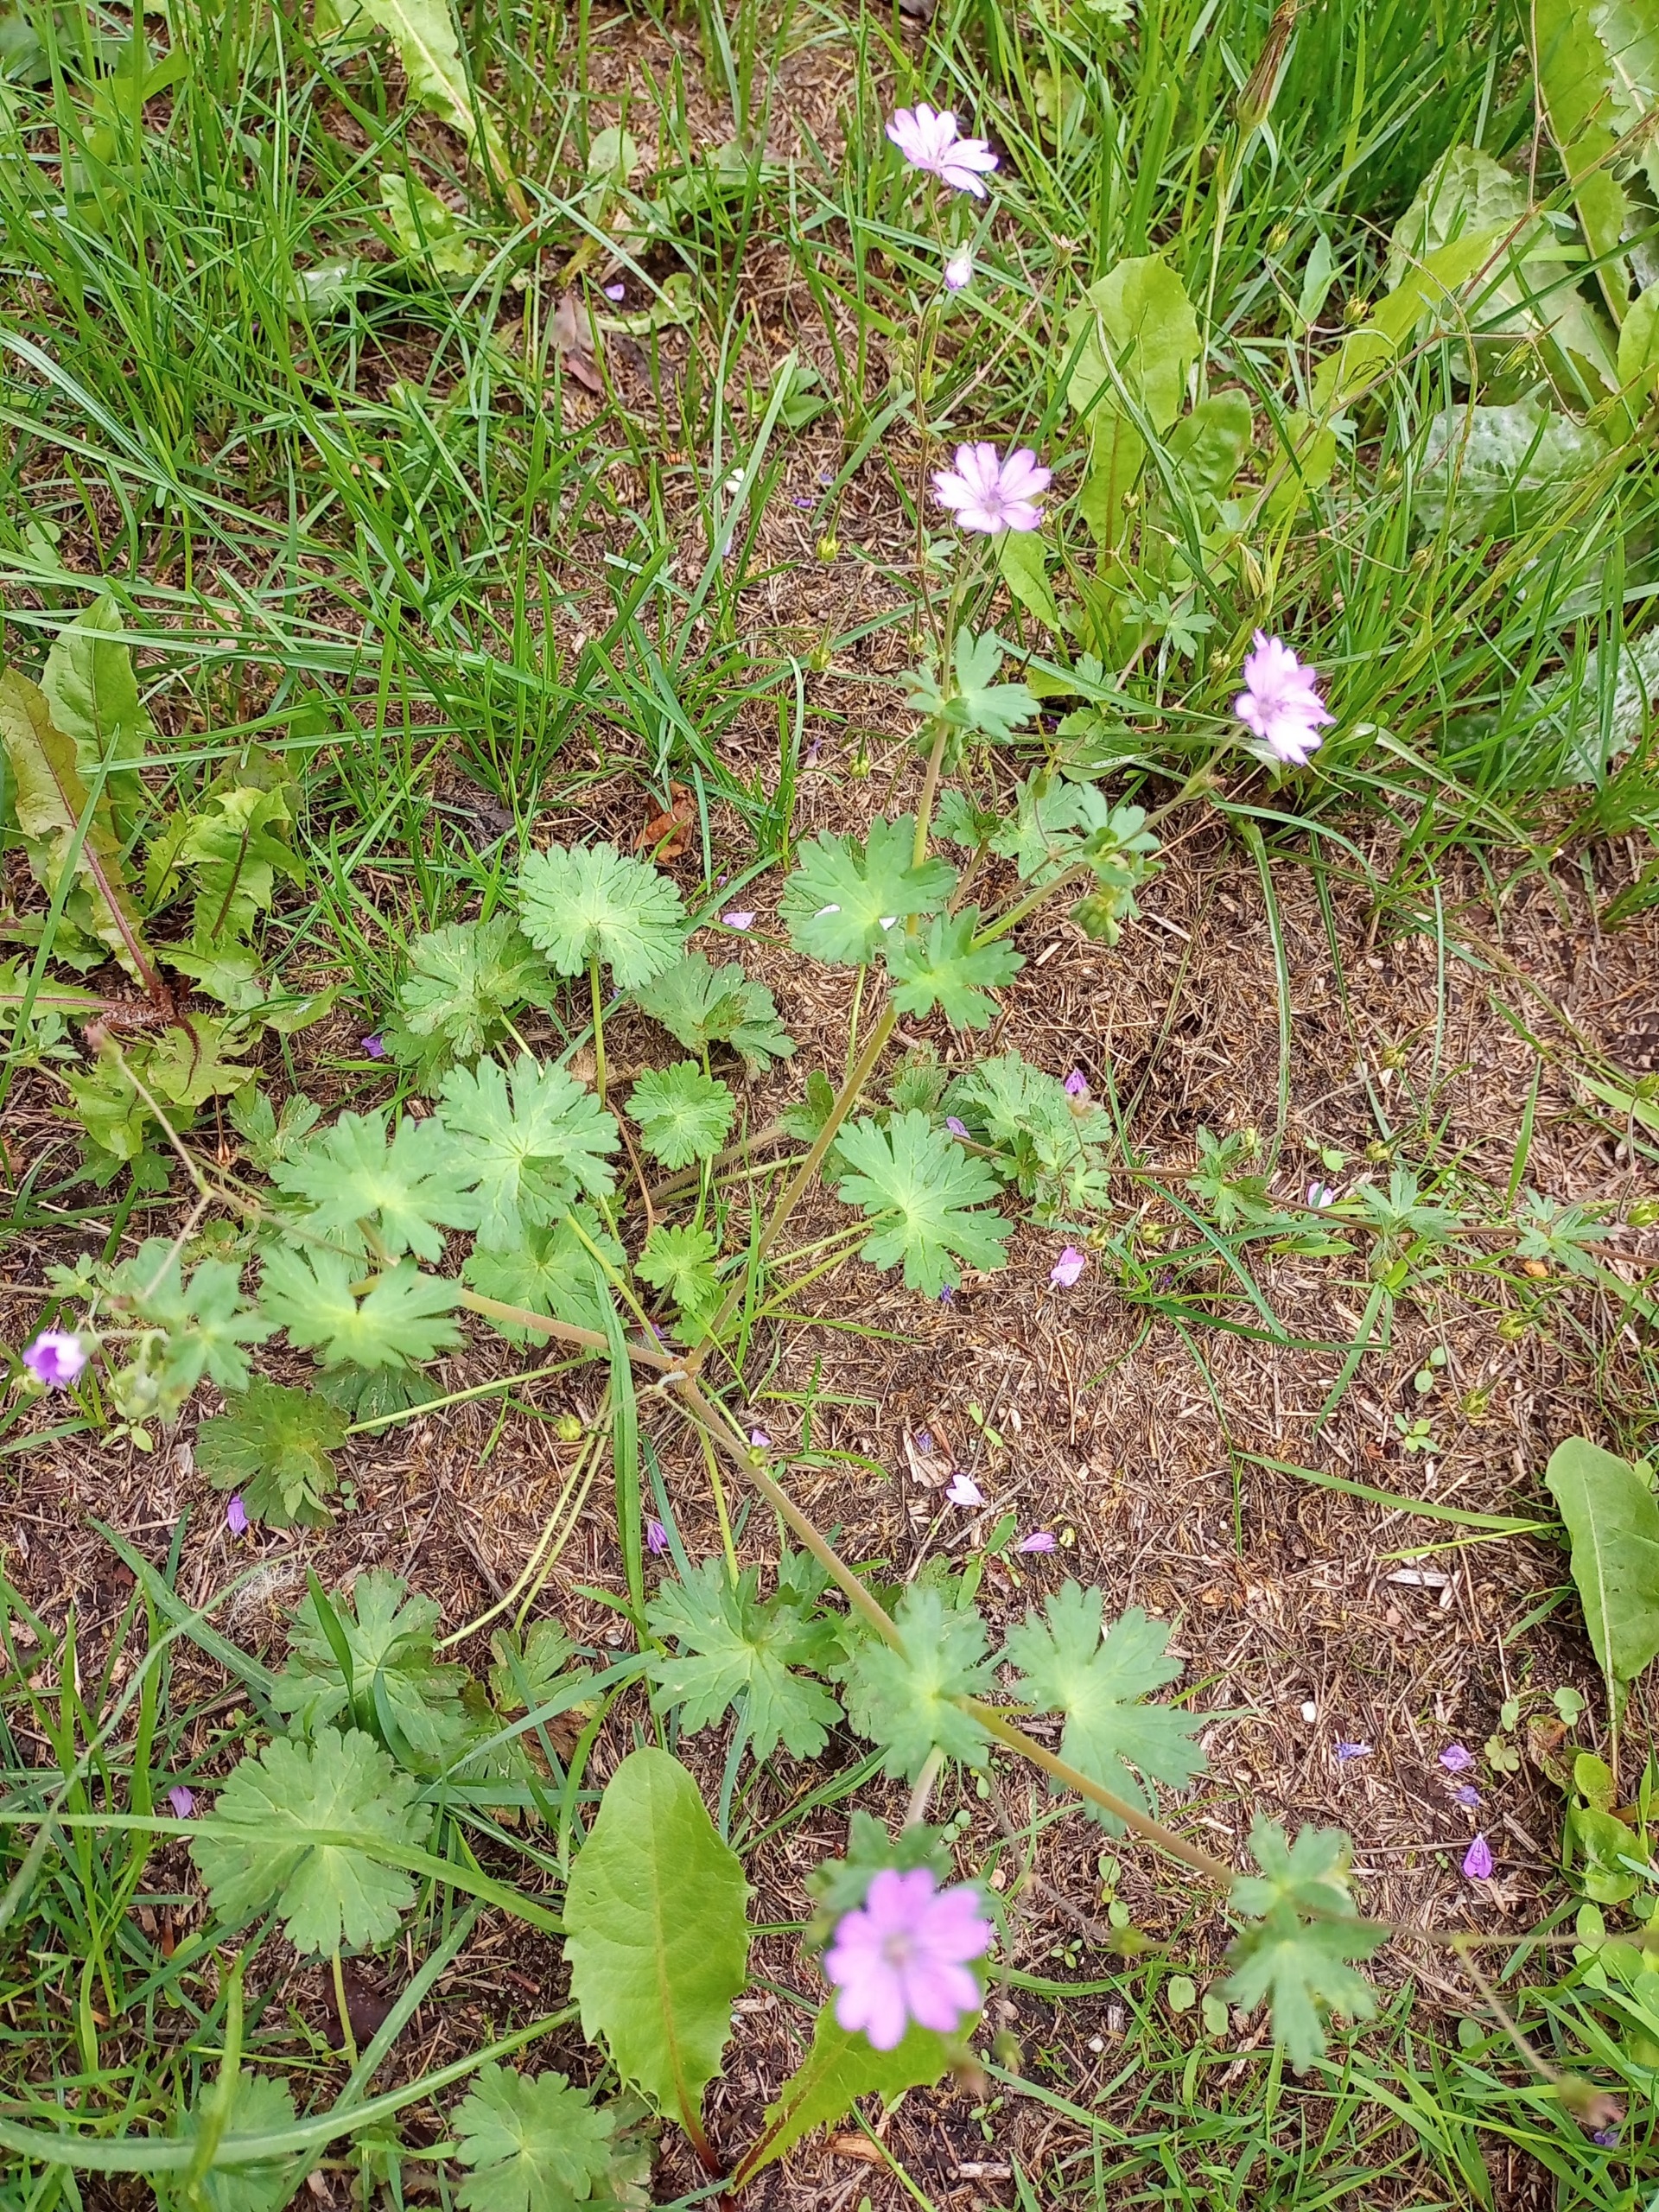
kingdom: Plantae
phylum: Tracheophyta
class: Magnoliopsida
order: Geraniales
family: Geraniaceae
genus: Geranium
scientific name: Geranium pyrenaicum
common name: Pyrenæisk storkenæb
